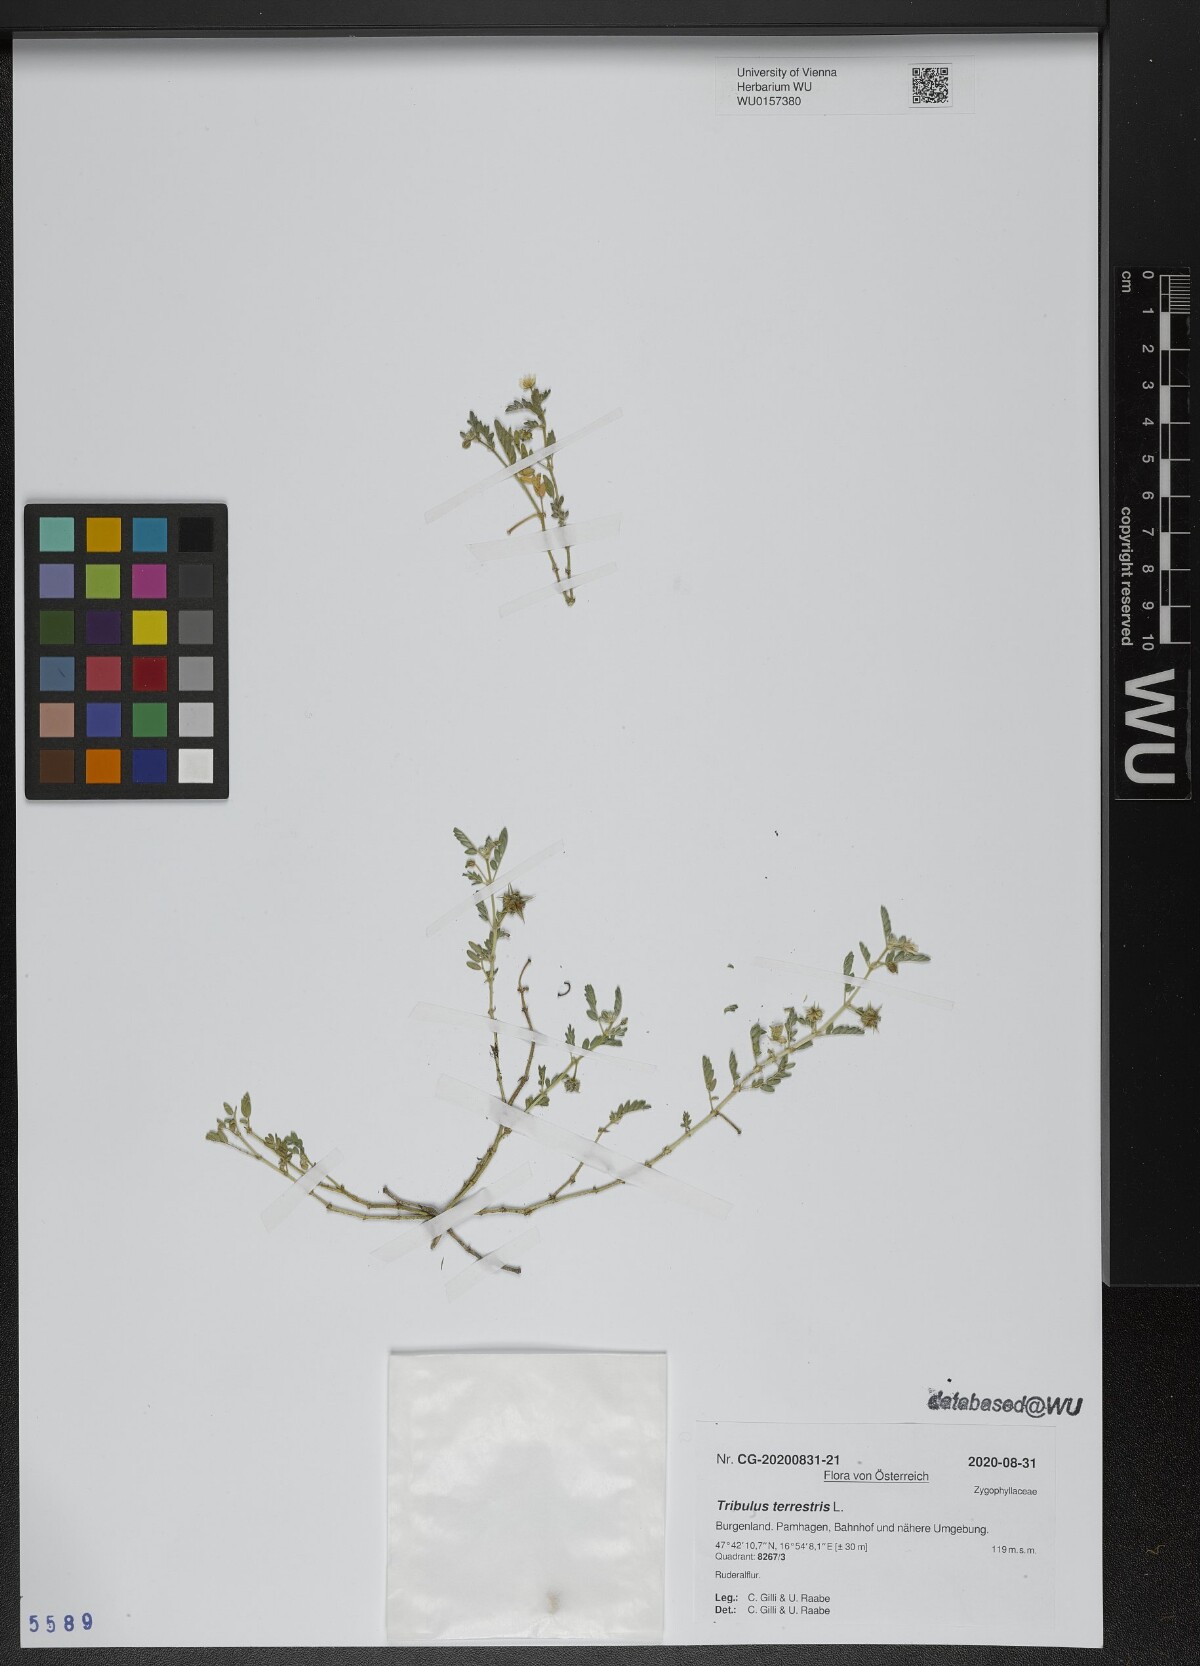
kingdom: Plantae
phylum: Tracheophyta
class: Magnoliopsida
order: Zygophyllales
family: Zygophyllaceae
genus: Tribulus
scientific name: Tribulus terrestris
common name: Puncturevine
